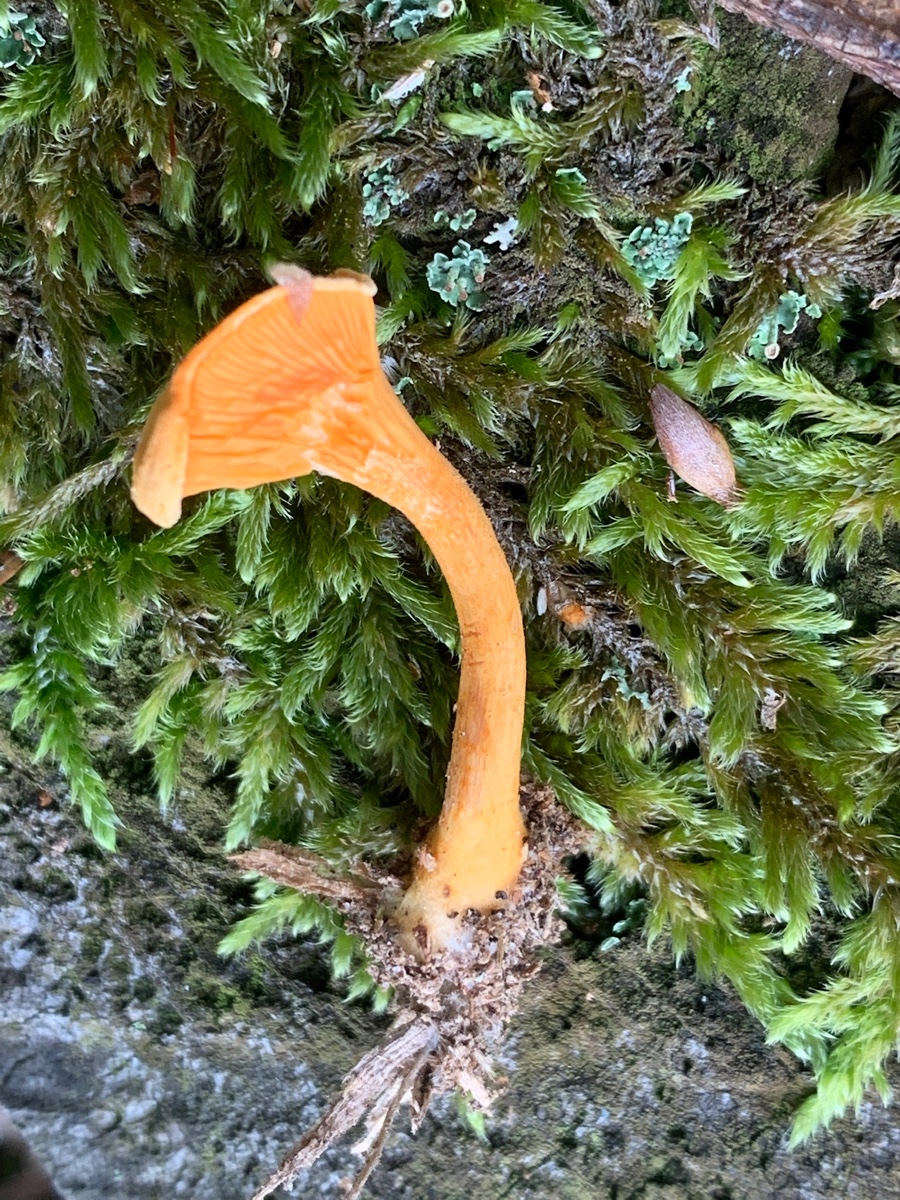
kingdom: Fungi
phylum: Basidiomycota
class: Agaricomycetes
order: Boletales
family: Hygrophoropsidaceae
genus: Hygrophoropsis
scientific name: Hygrophoropsis aurantiaca
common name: almindelig orangekantarel
